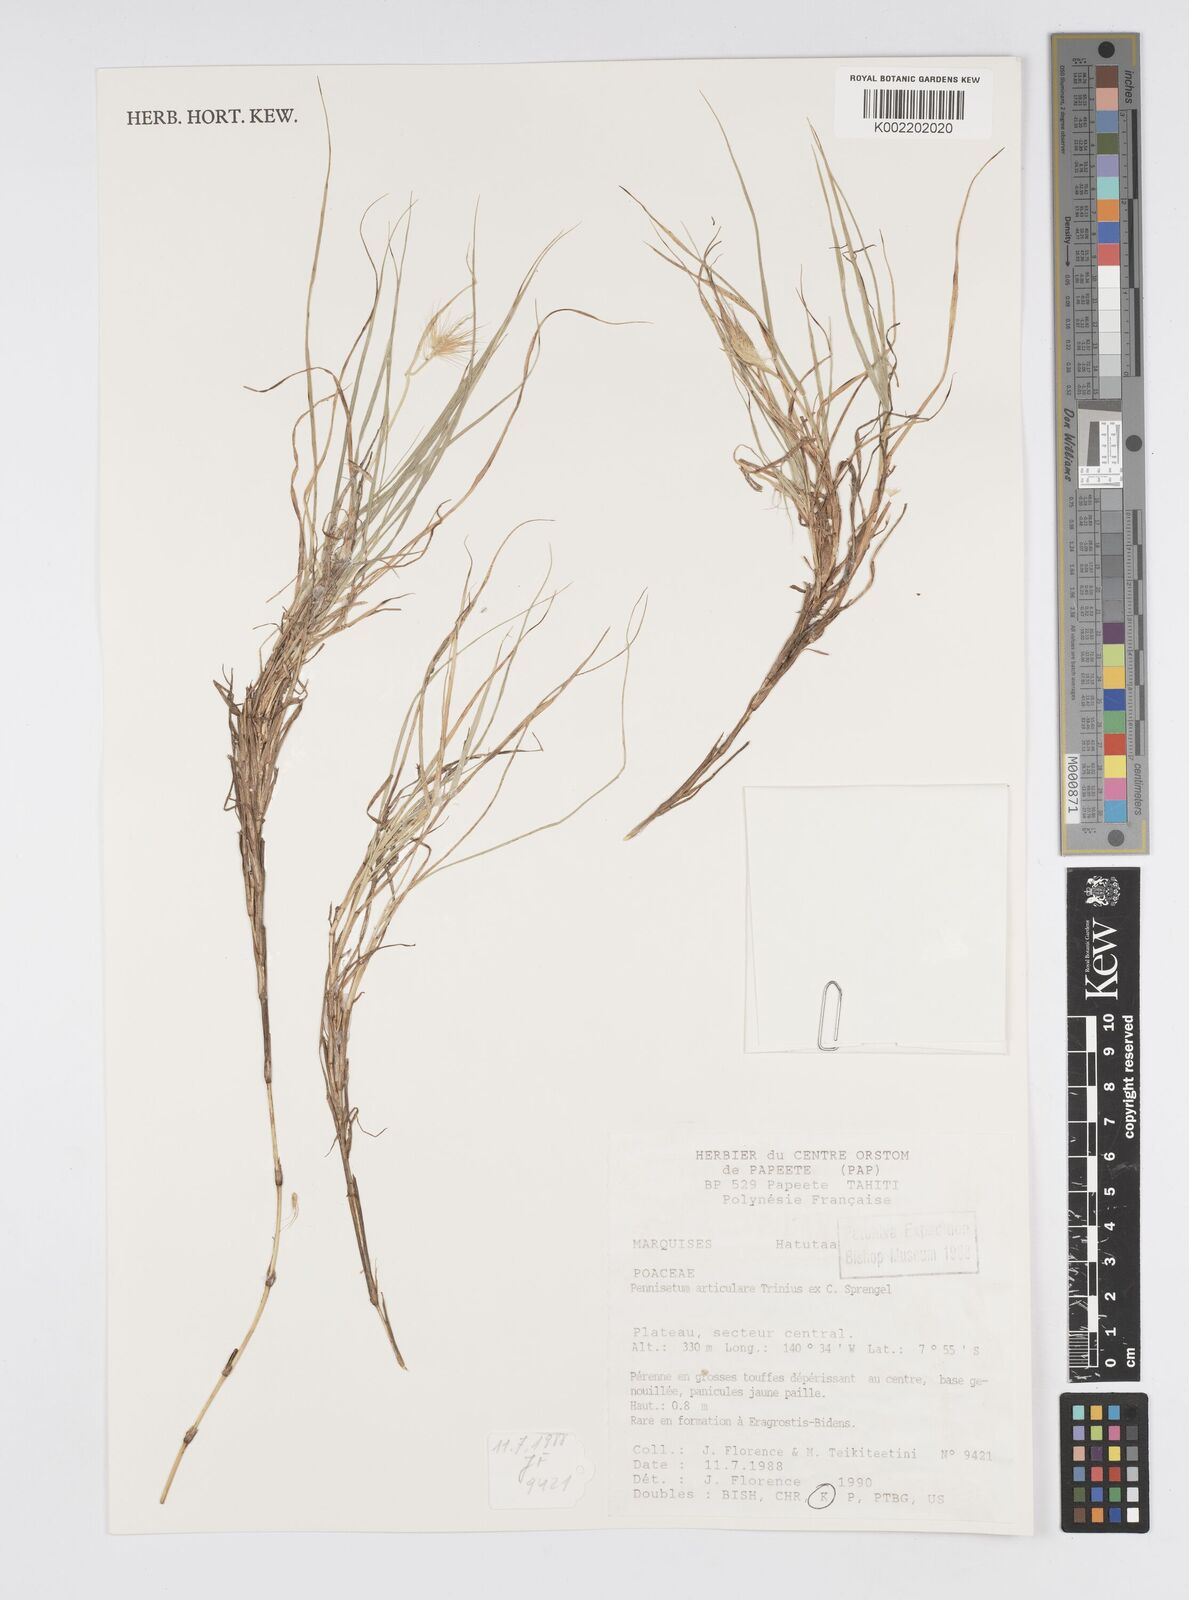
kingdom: Plantae
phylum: Tracheophyta
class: Liliopsida
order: Poales
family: Poaceae
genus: Cenchrus
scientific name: Cenchrus articularis
